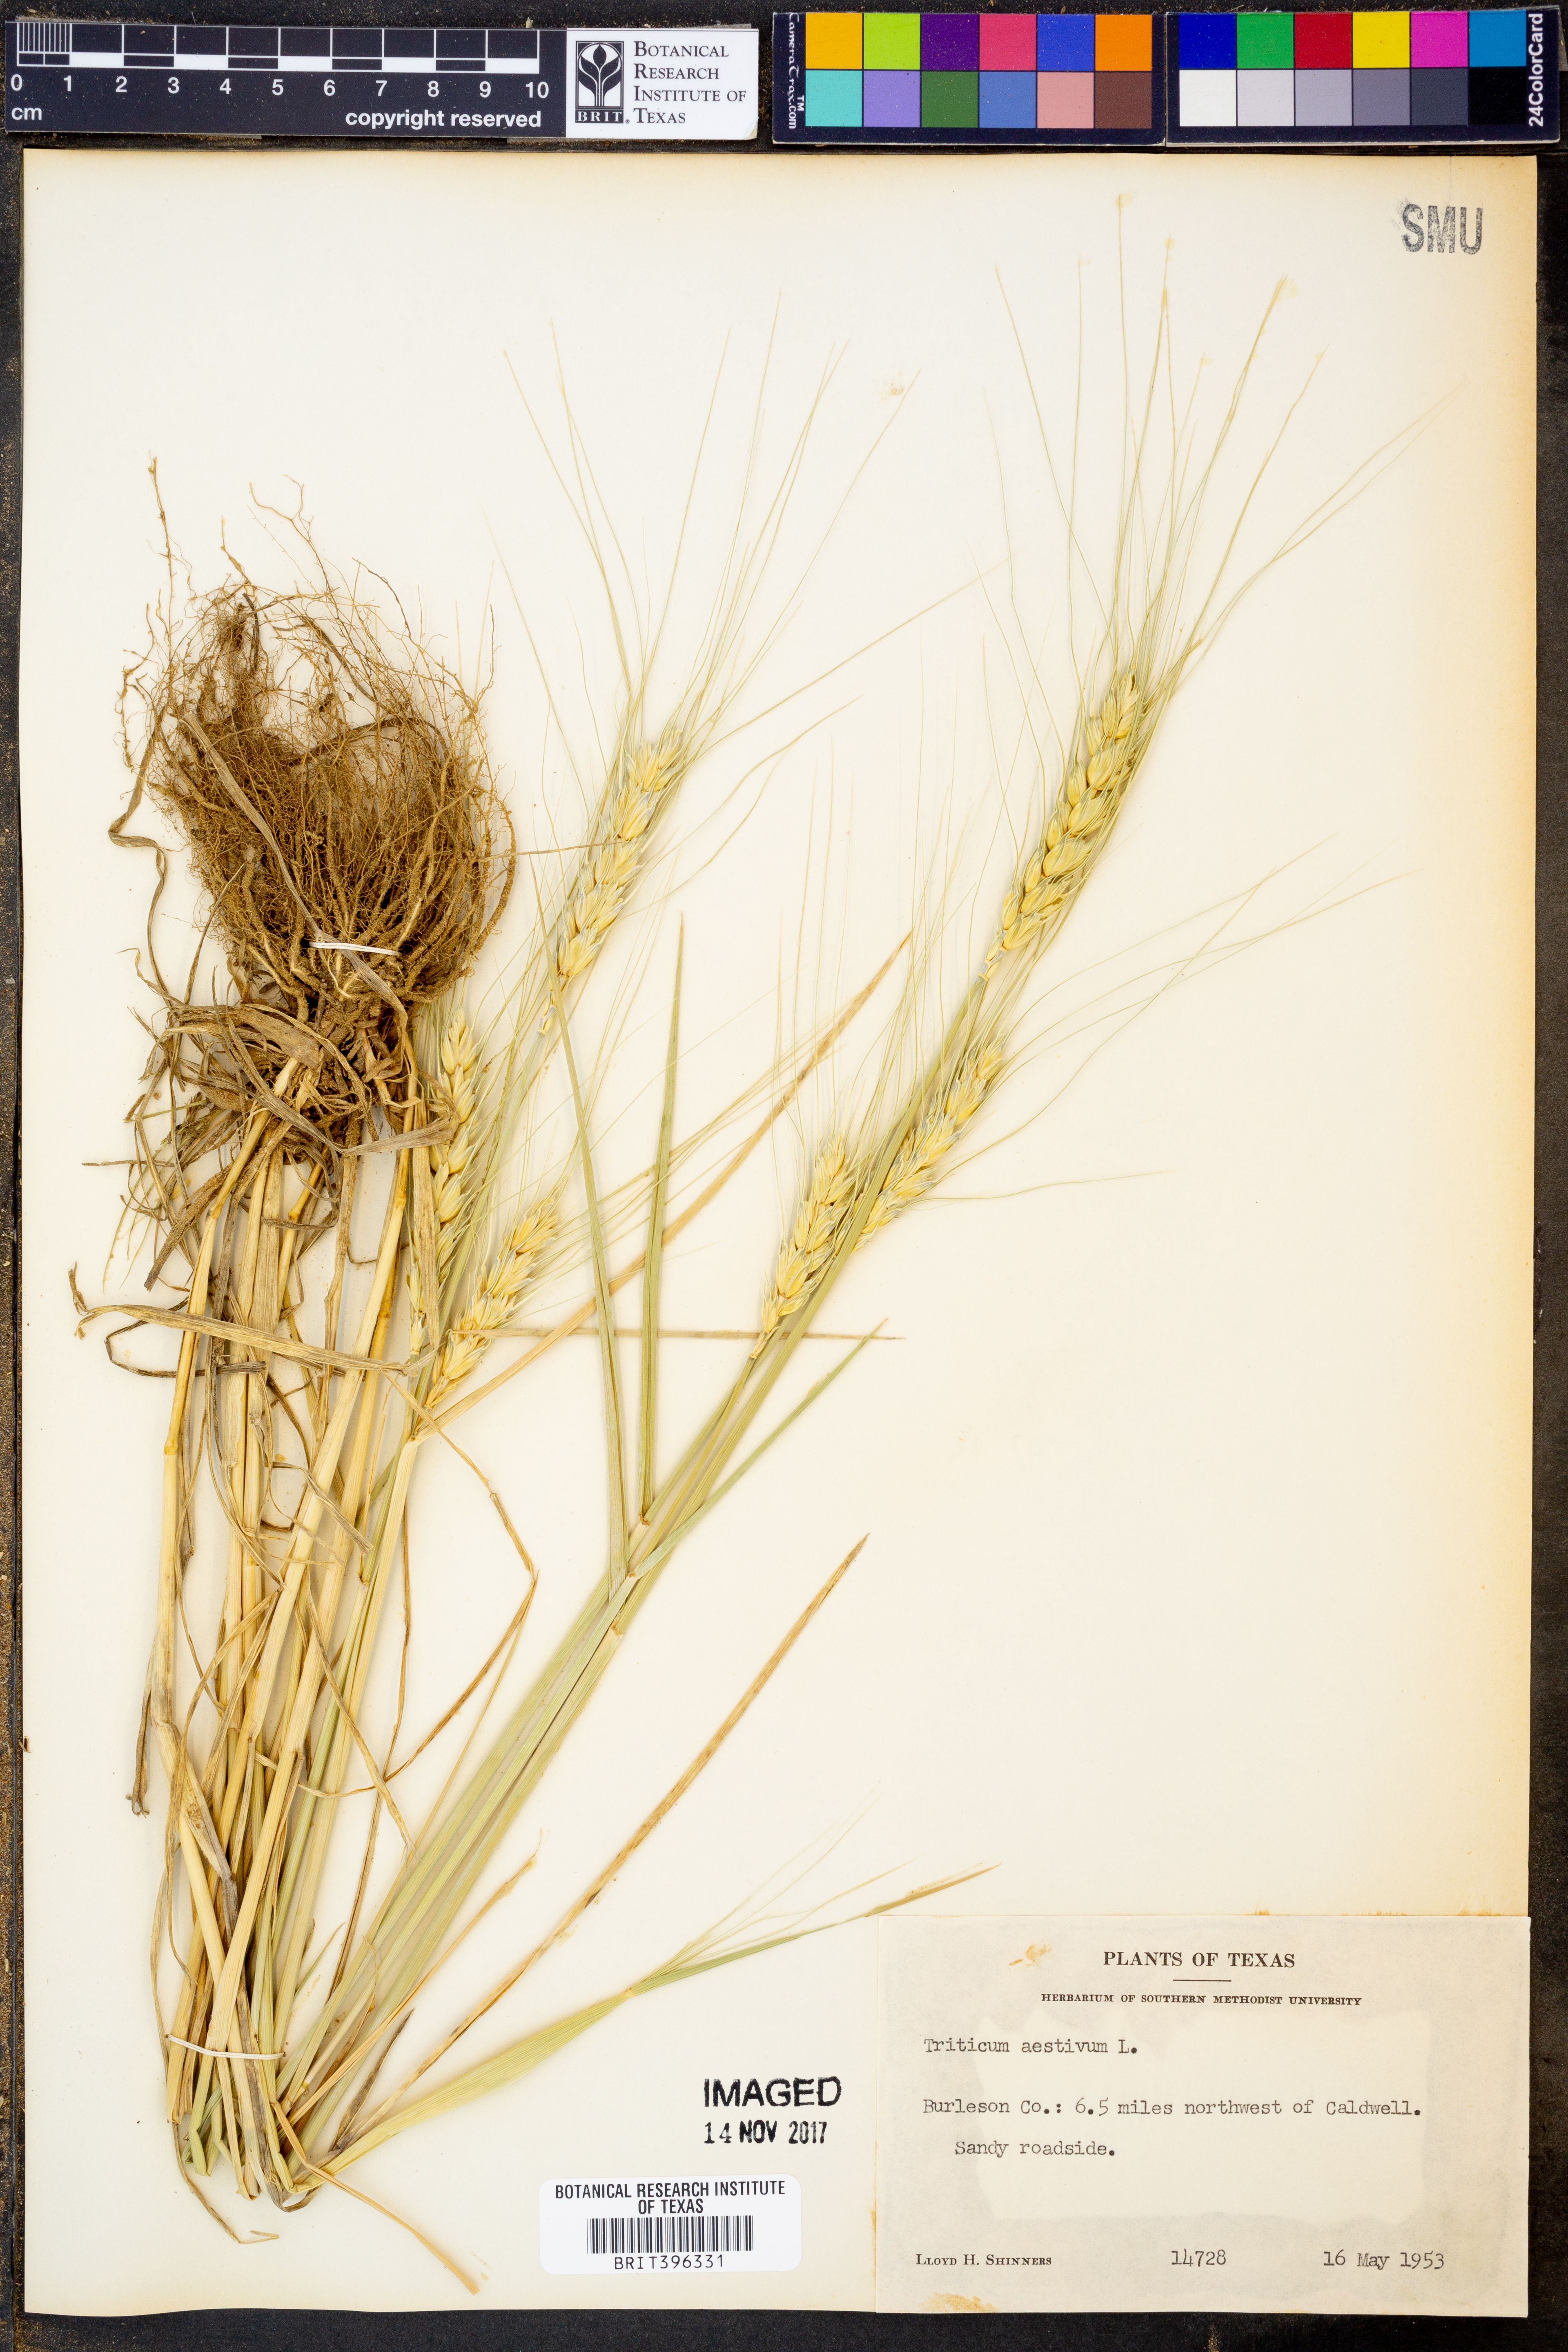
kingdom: Plantae
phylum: Tracheophyta
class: Liliopsida
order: Poales
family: Poaceae
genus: Triticum
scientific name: Triticum aestivum
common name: Common wheat
